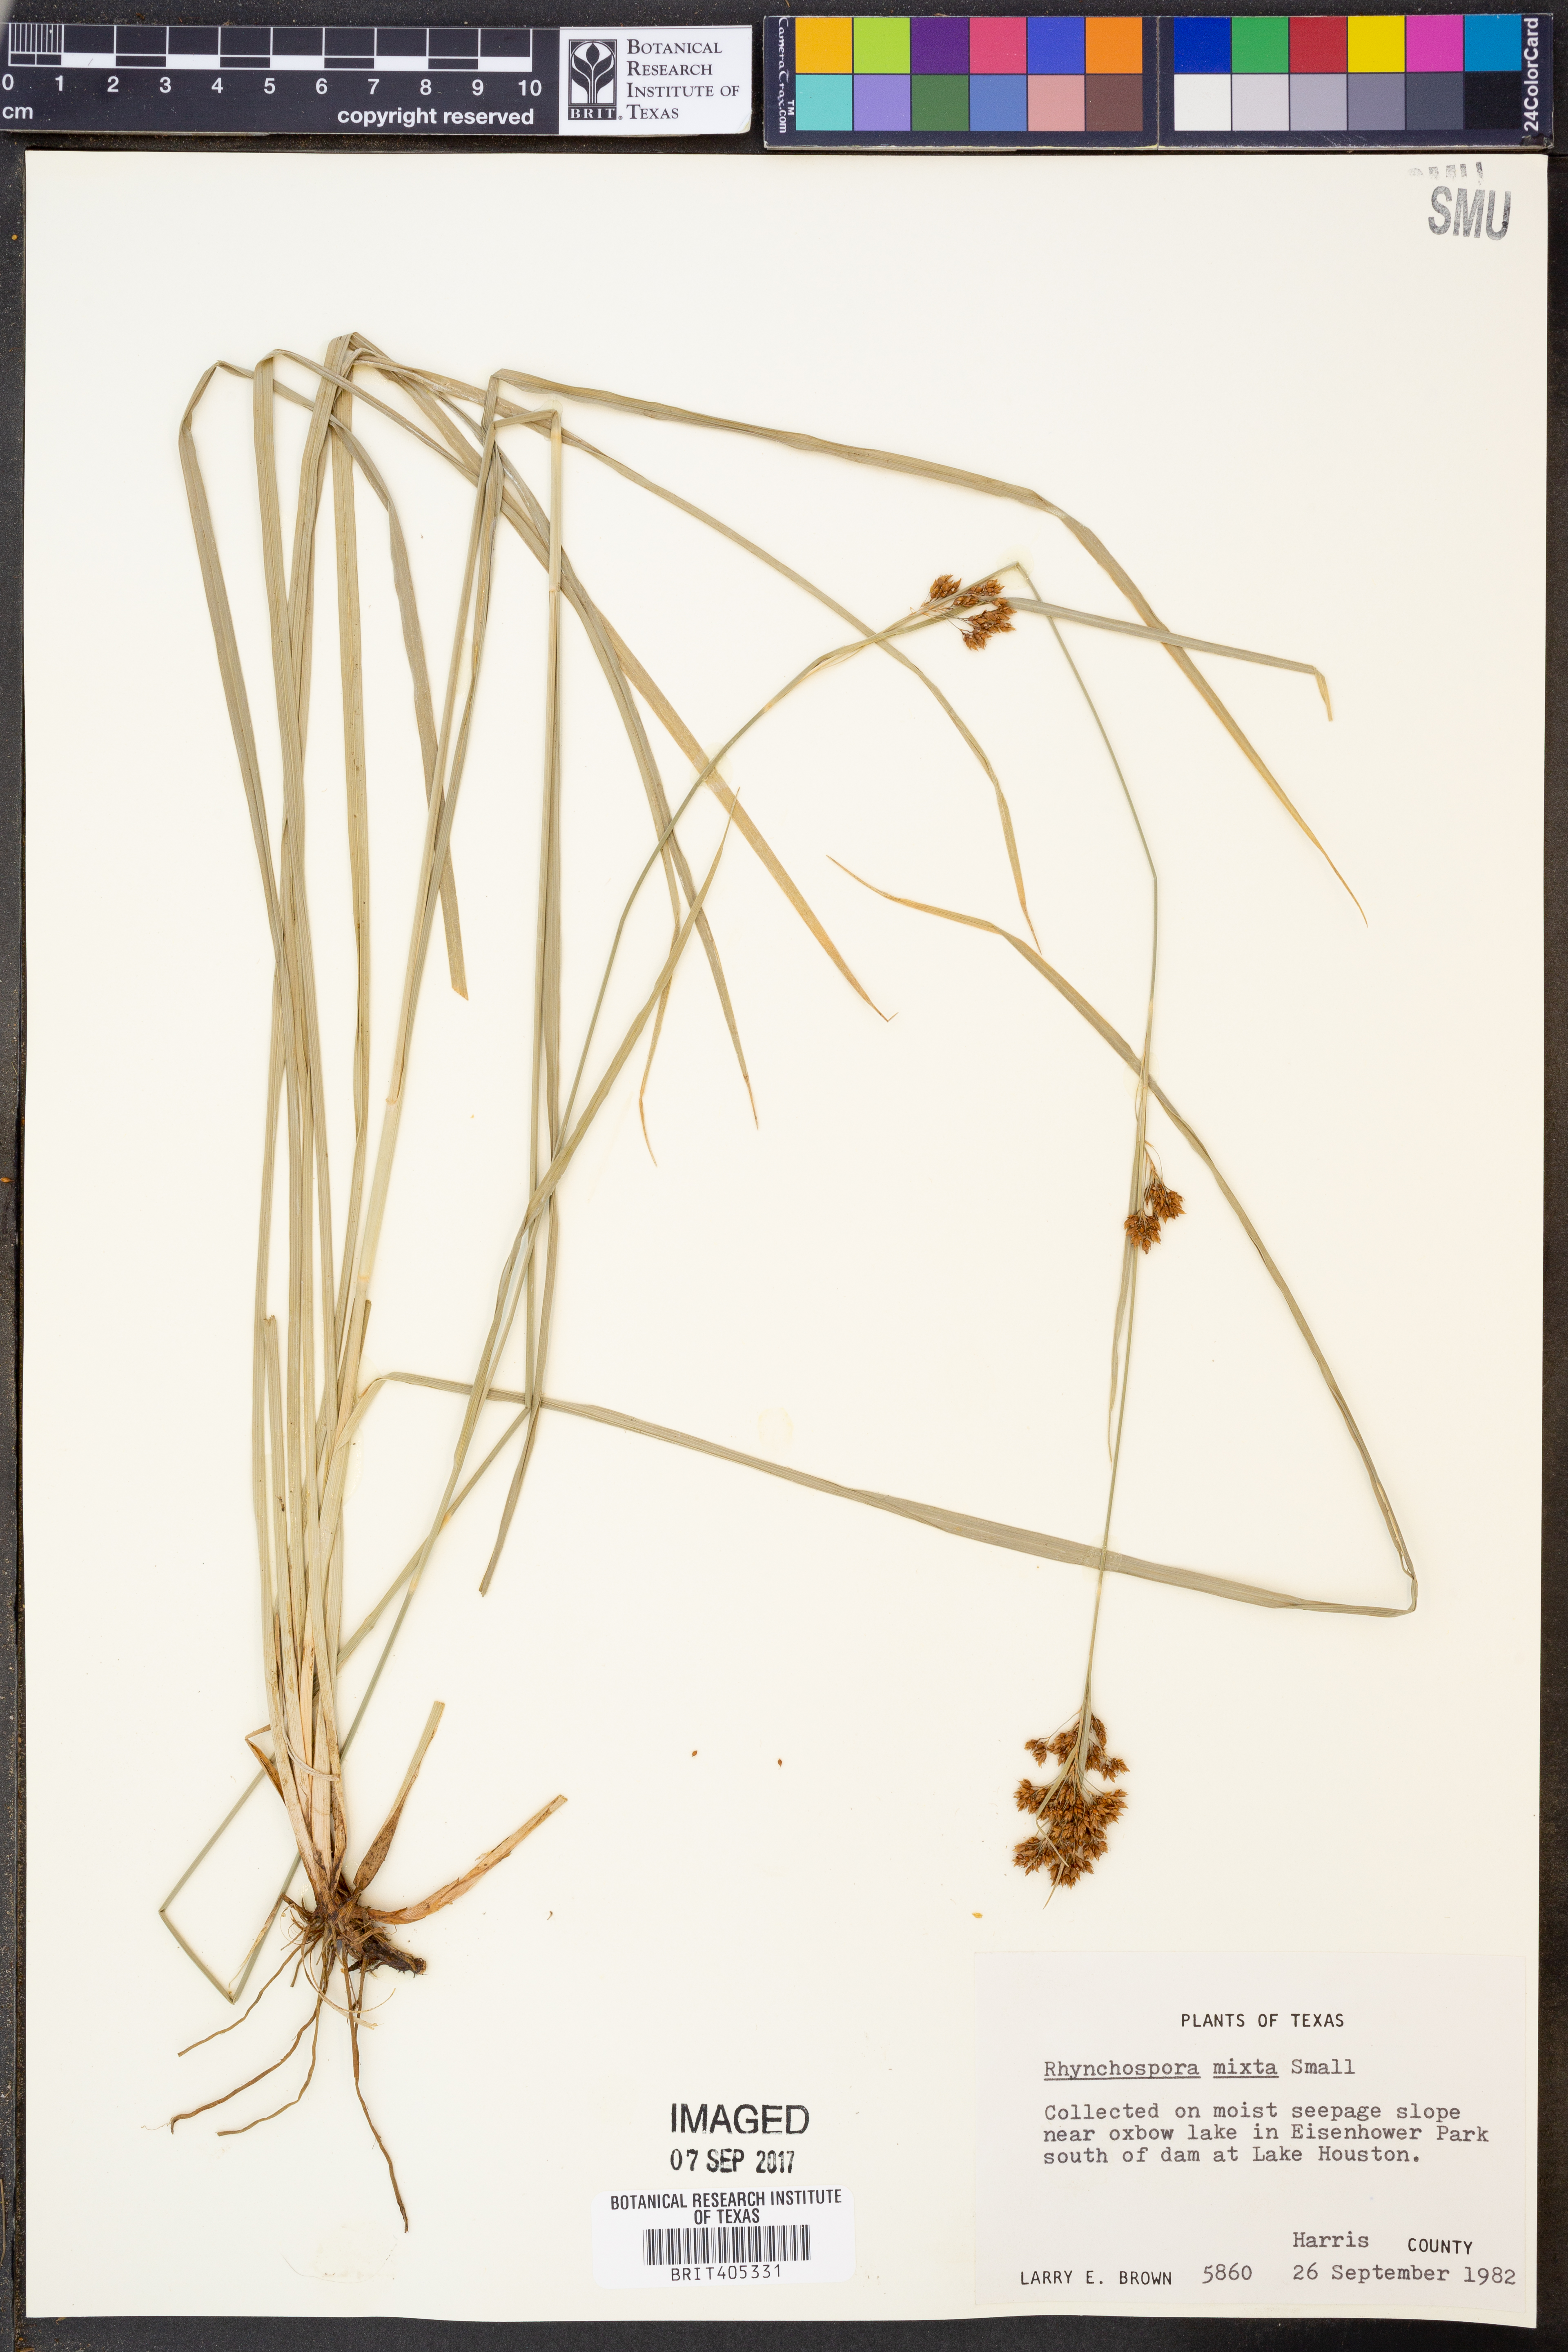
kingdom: Plantae
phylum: Tracheophyta
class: Liliopsida
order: Poales
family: Cyperaceae
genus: Rhynchospora
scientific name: Rhynchospora mixta
